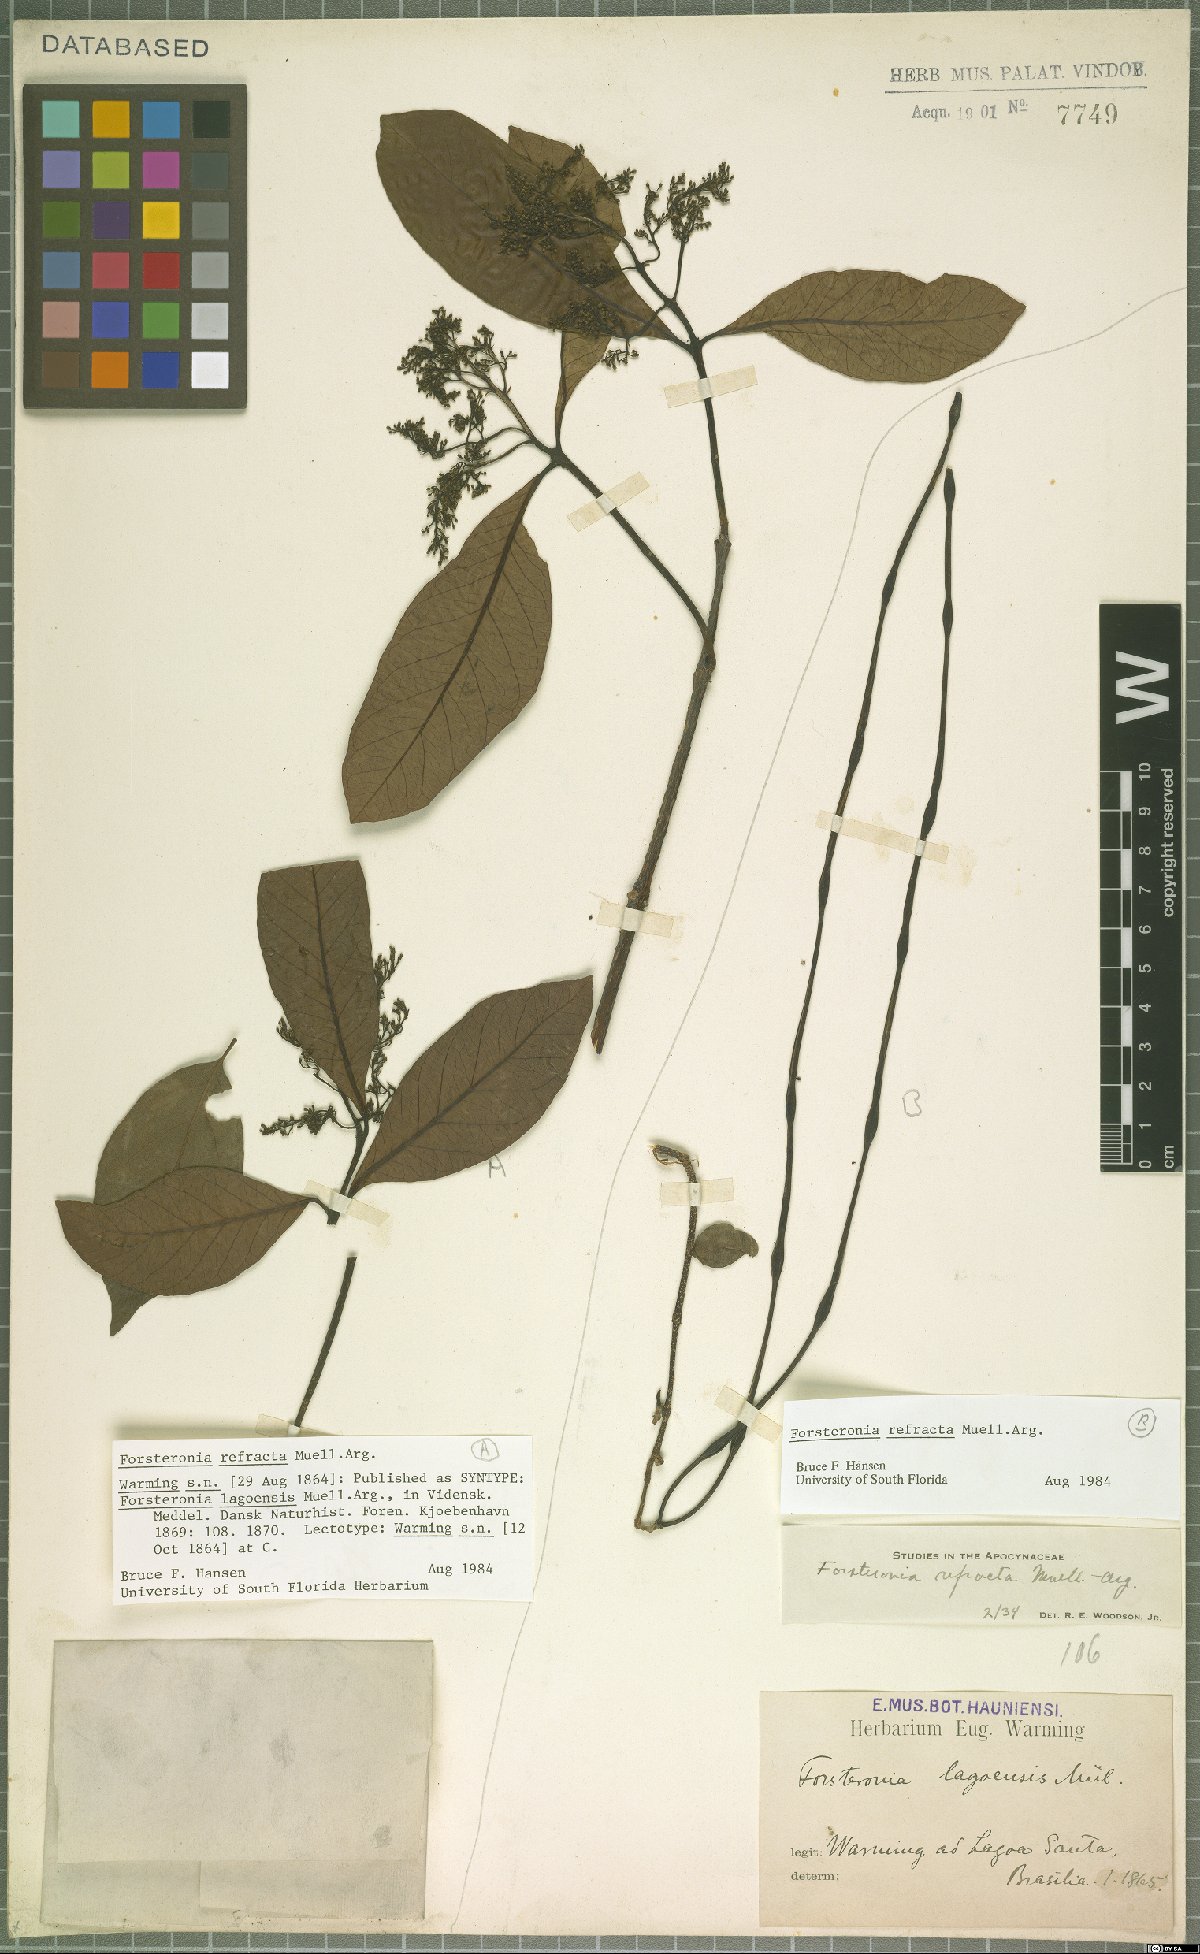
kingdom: Plantae
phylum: Tracheophyta
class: Magnoliopsida
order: Gentianales
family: Apocynaceae
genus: Forsteronia
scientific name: Forsteronia refracta
